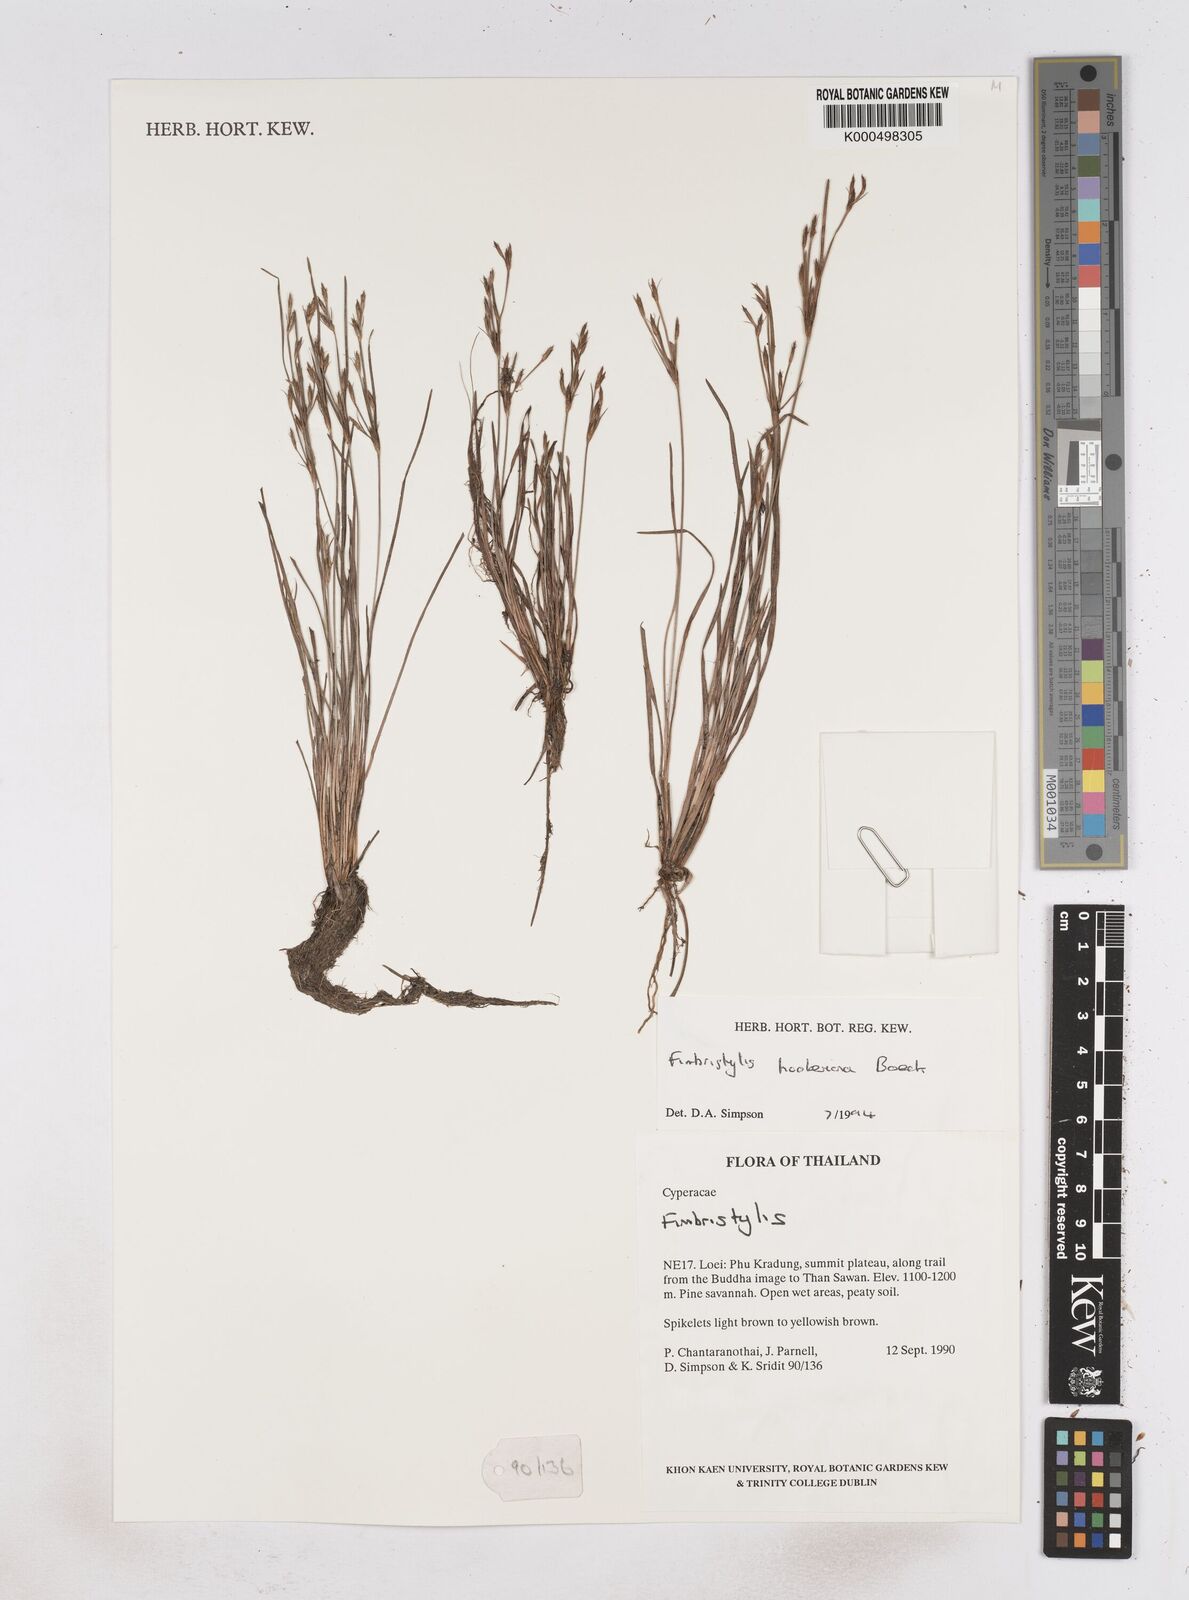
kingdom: Plantae
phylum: Tracheophyta
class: Liliopsida
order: Poales
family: Cyperaceae
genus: Fimbristylis
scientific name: Fimbristylis hookeriana
